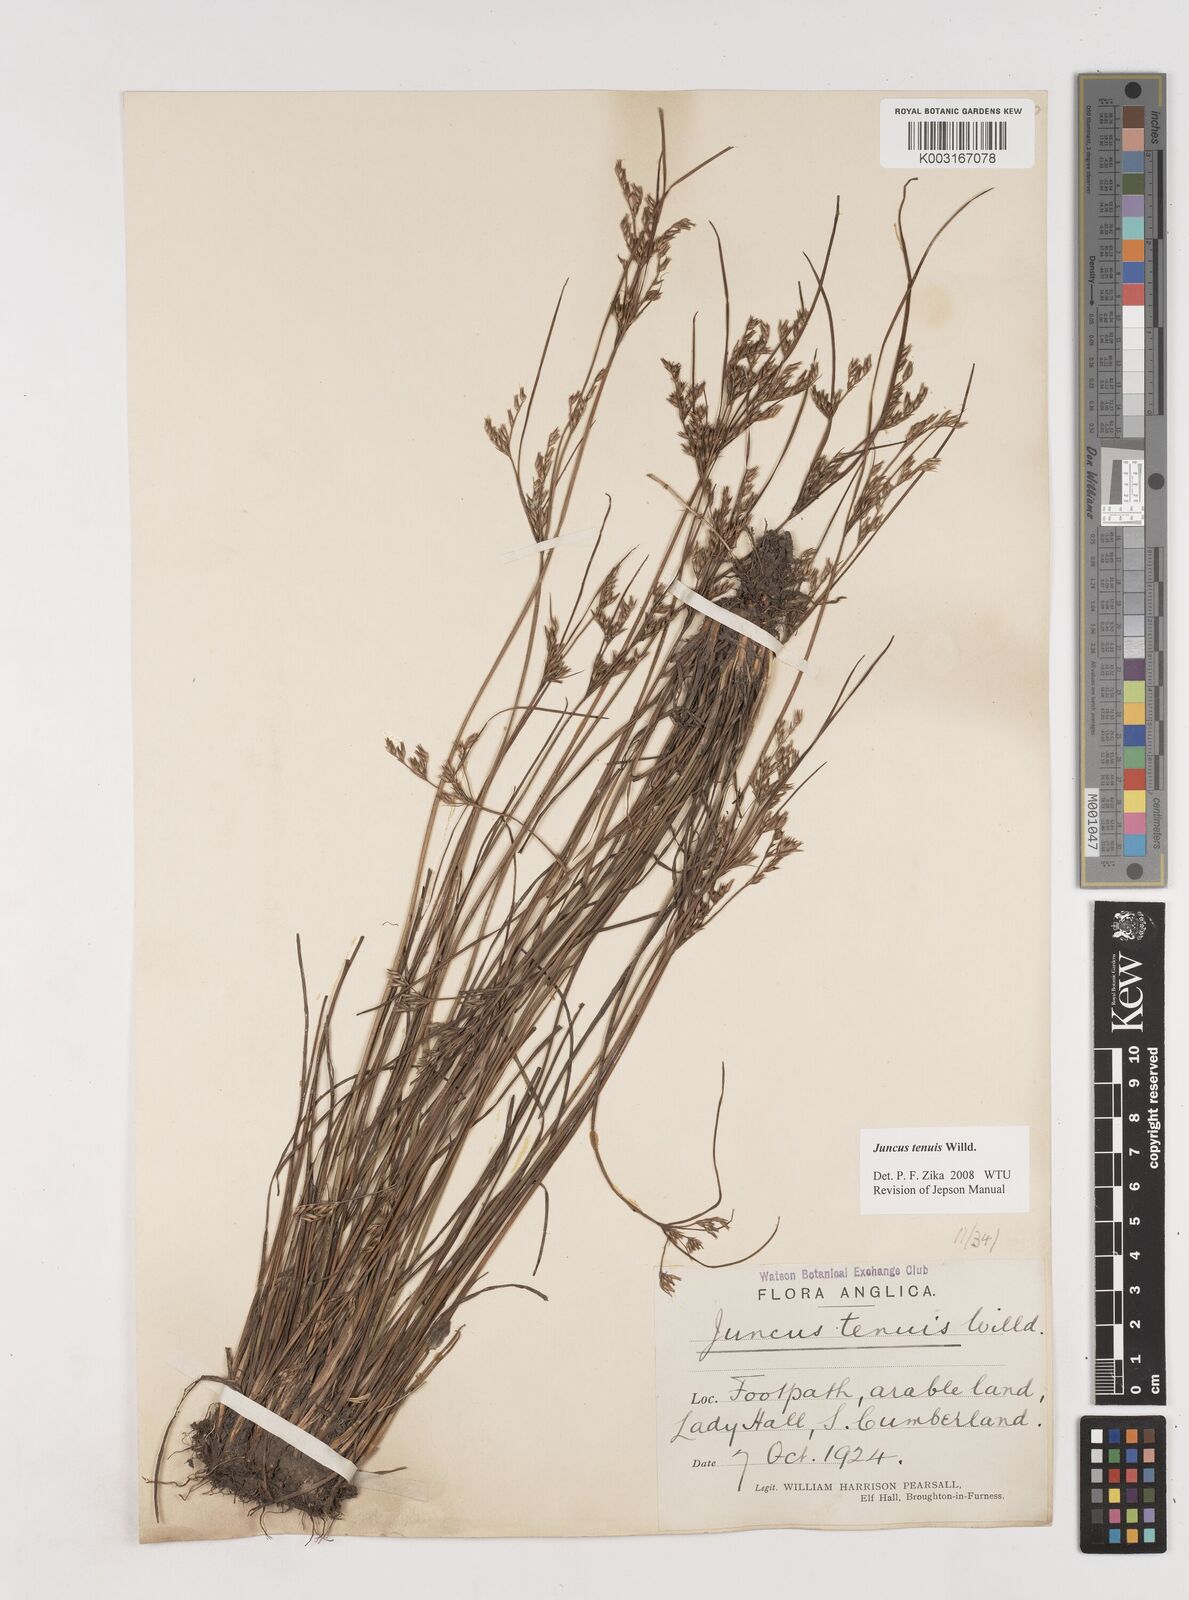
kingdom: Plantae
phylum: Tracheophyta
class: Liliopsida
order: Poales
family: Juncaceae
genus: Juncus
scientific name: Juncus tenuis
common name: Slender rush
